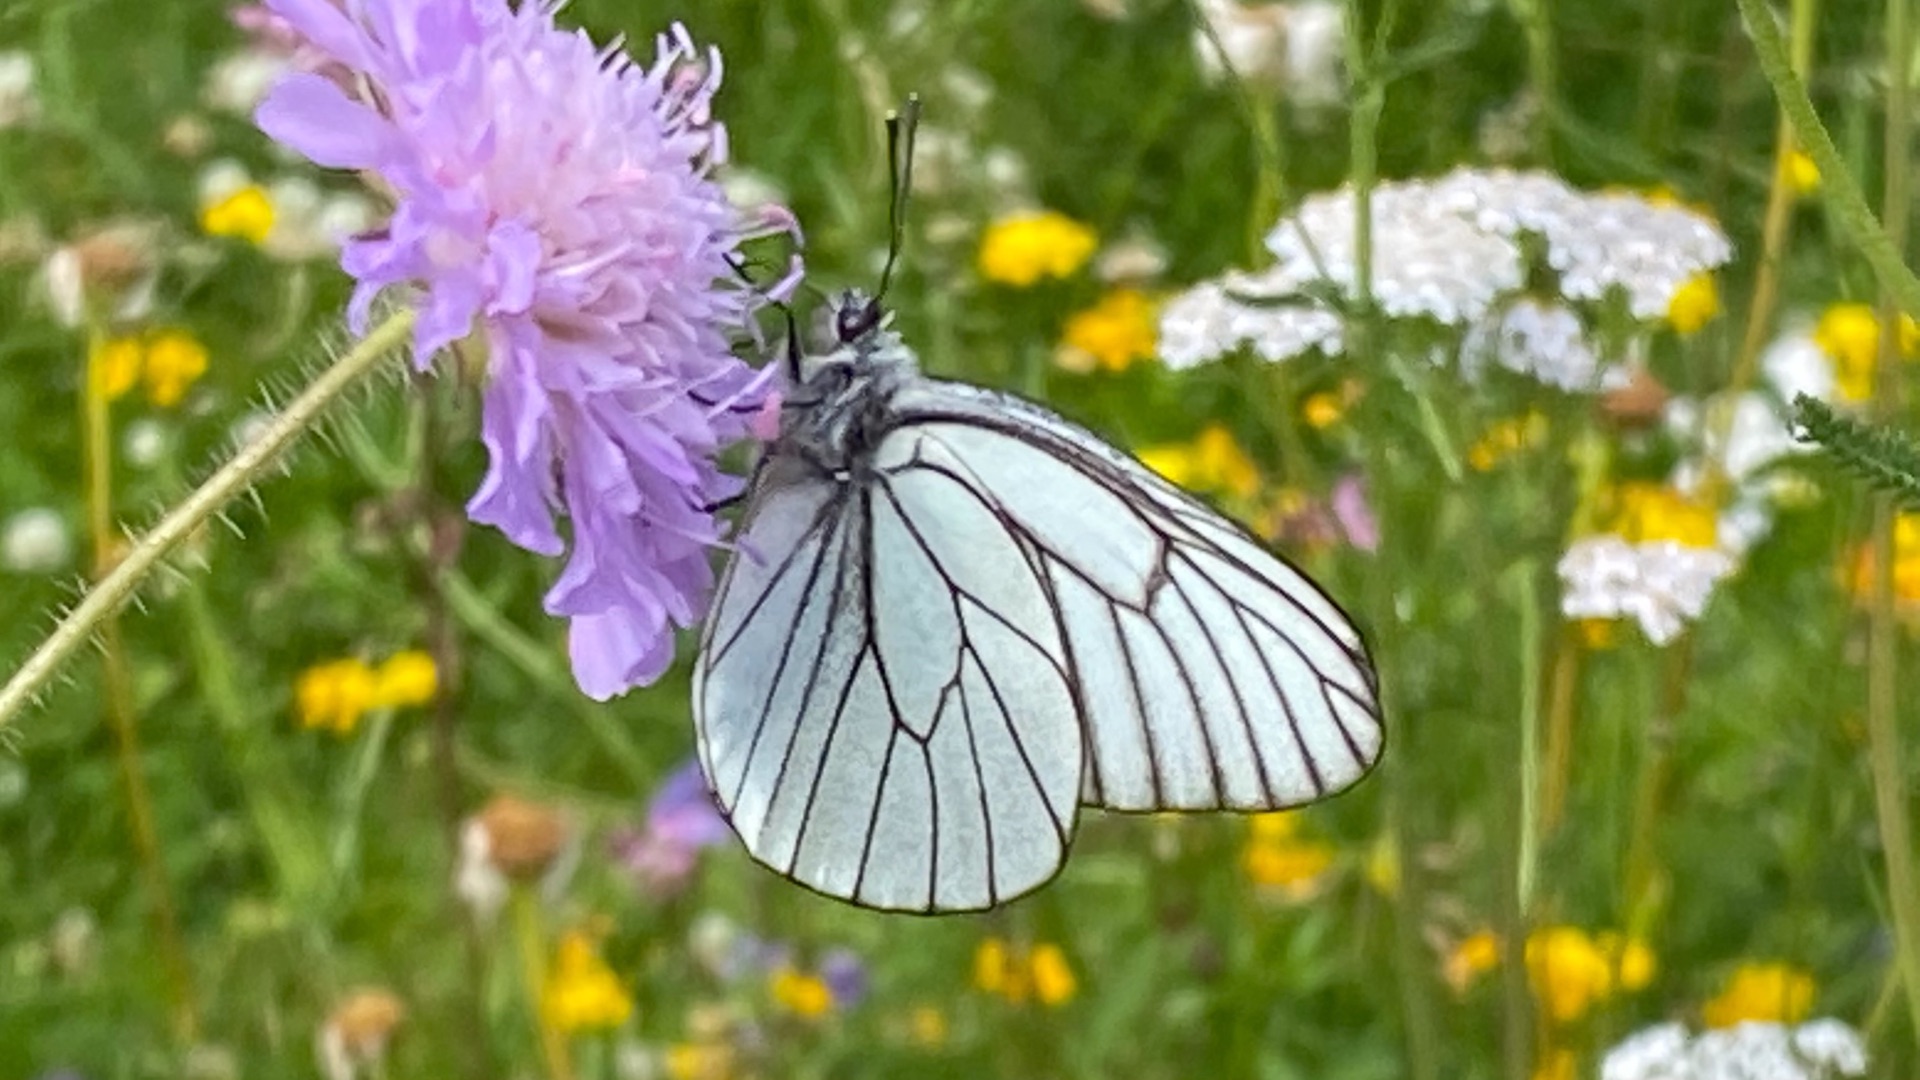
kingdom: Animalia
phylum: Arthropoda
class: Insecta
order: Lepidoptera
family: Pieridae
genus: Aporia
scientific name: Aporia crataegi
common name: Sortåret hvidvinge
